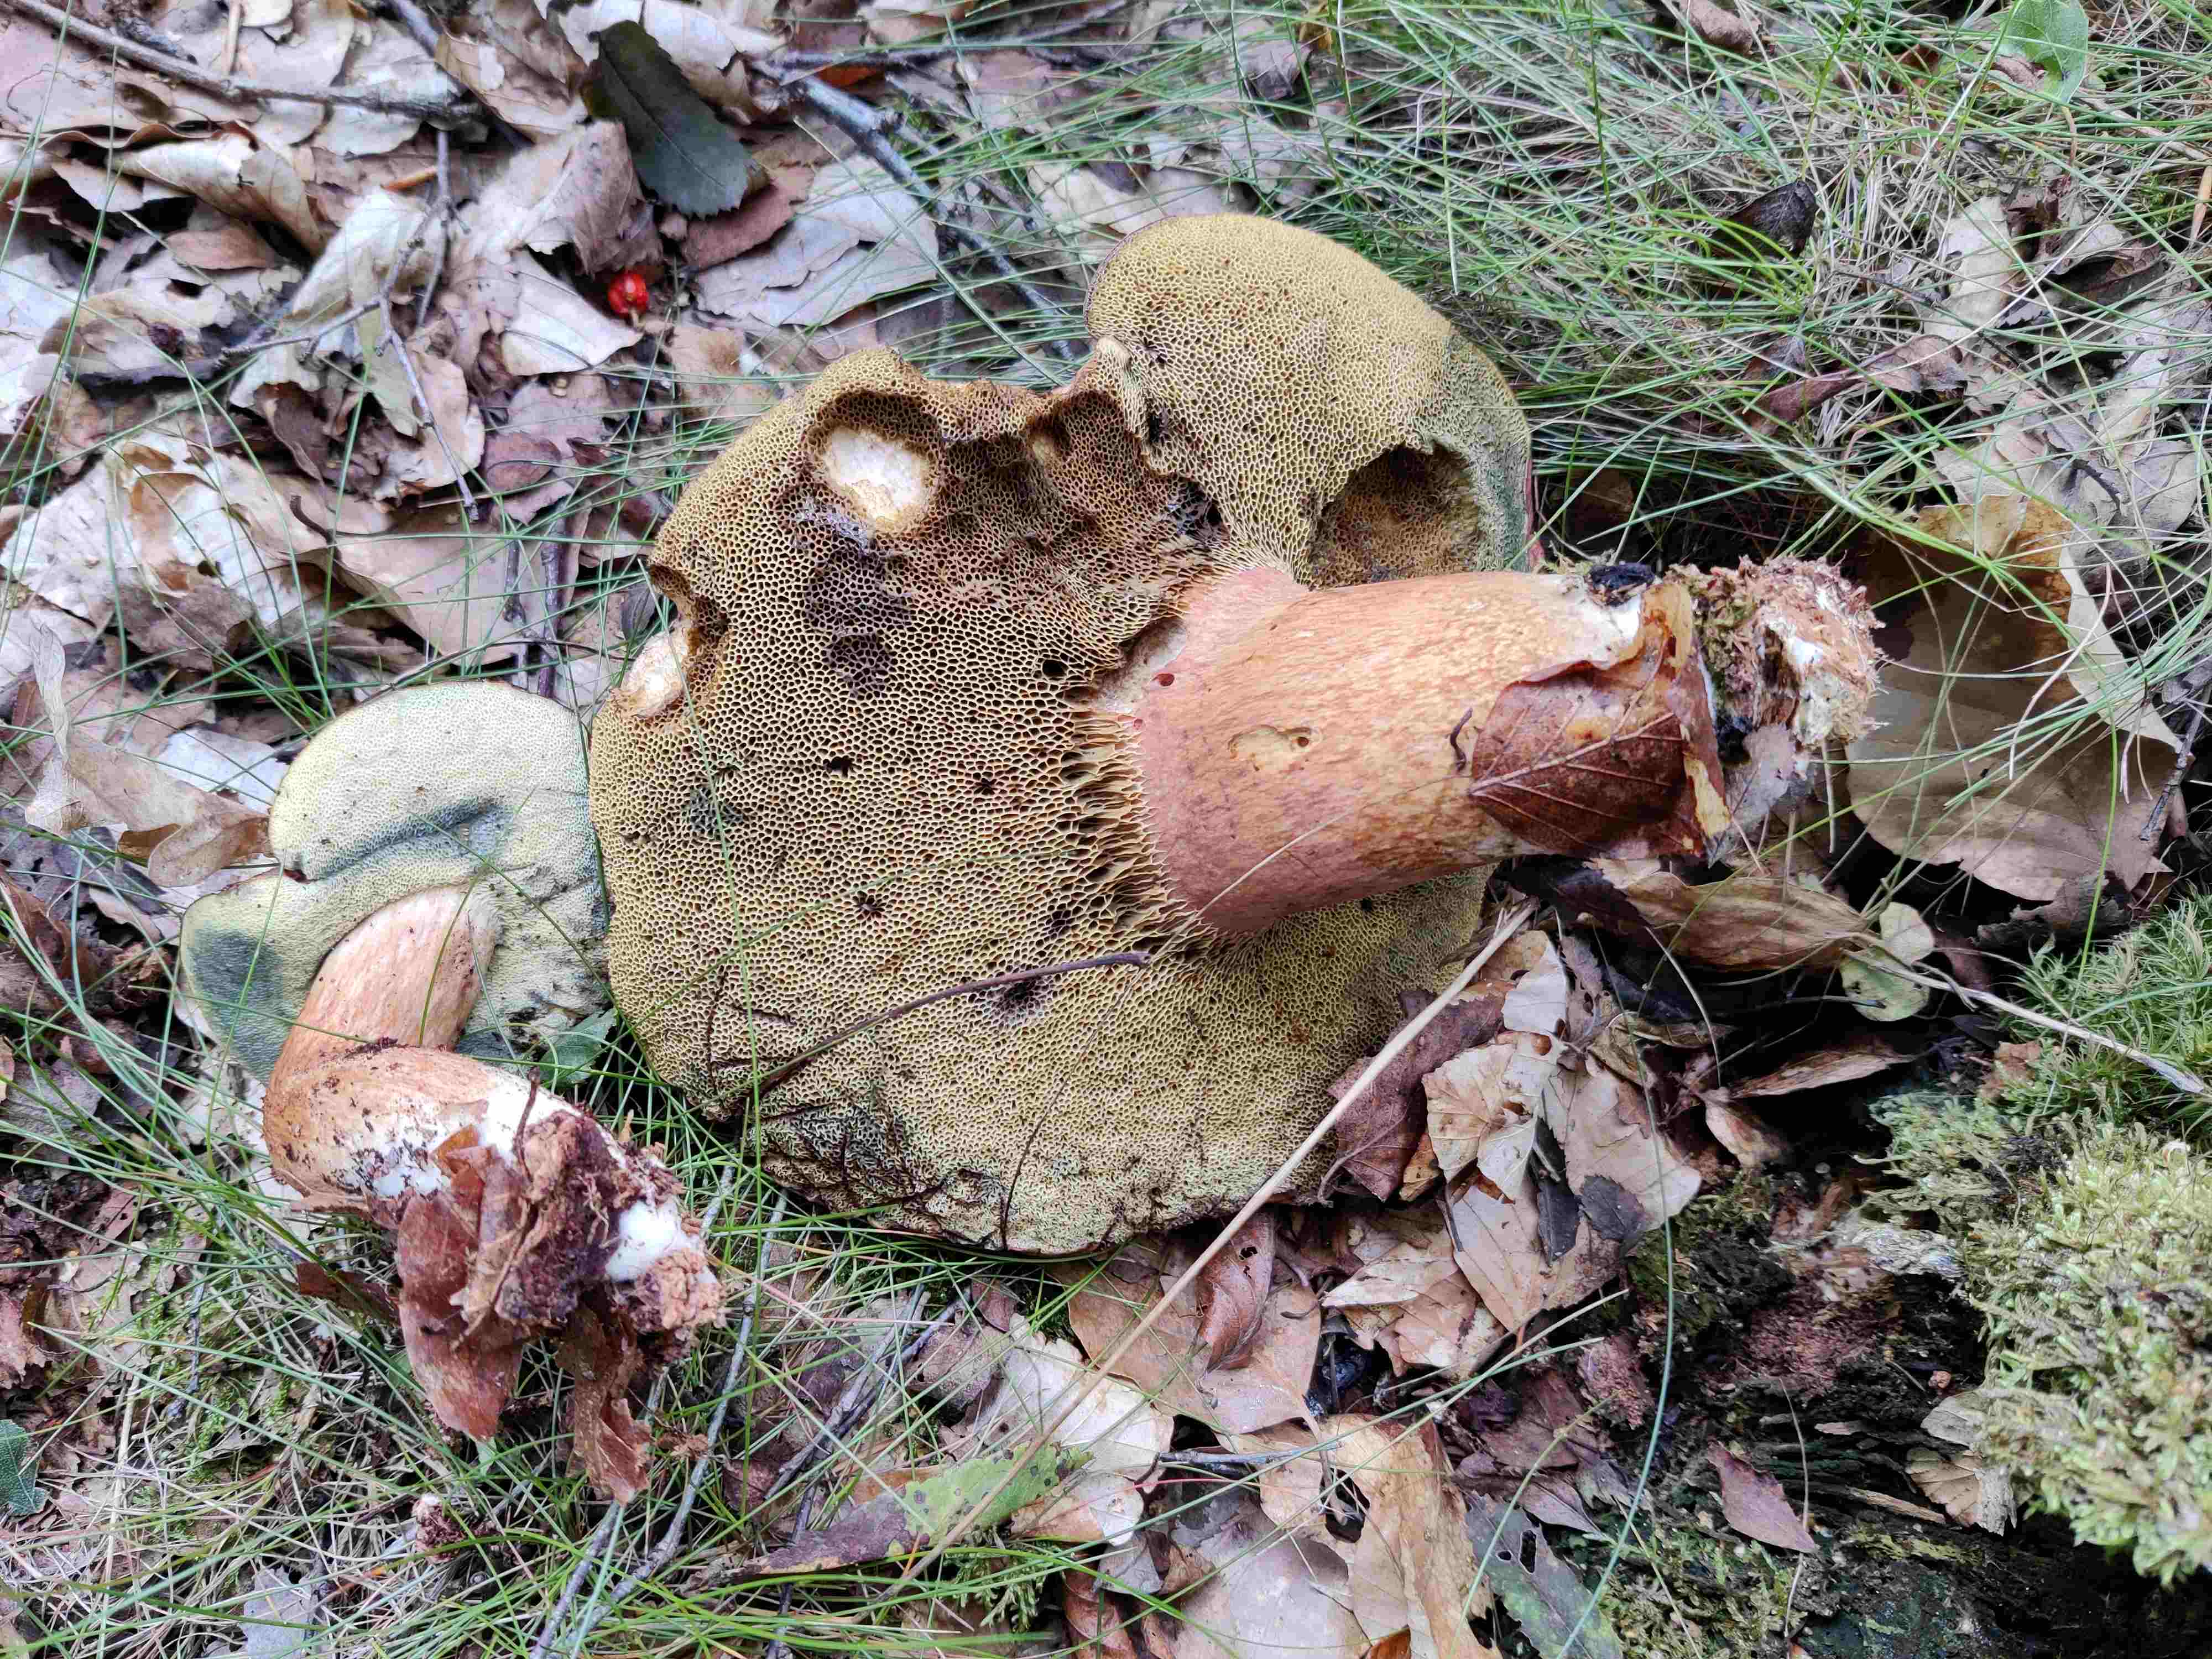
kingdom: Fungi
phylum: Basidiomycota
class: Agaricomycetes
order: Boletales
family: Boletaceae
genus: Imleria
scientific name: Imleria badia
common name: brunstokket rørhat
